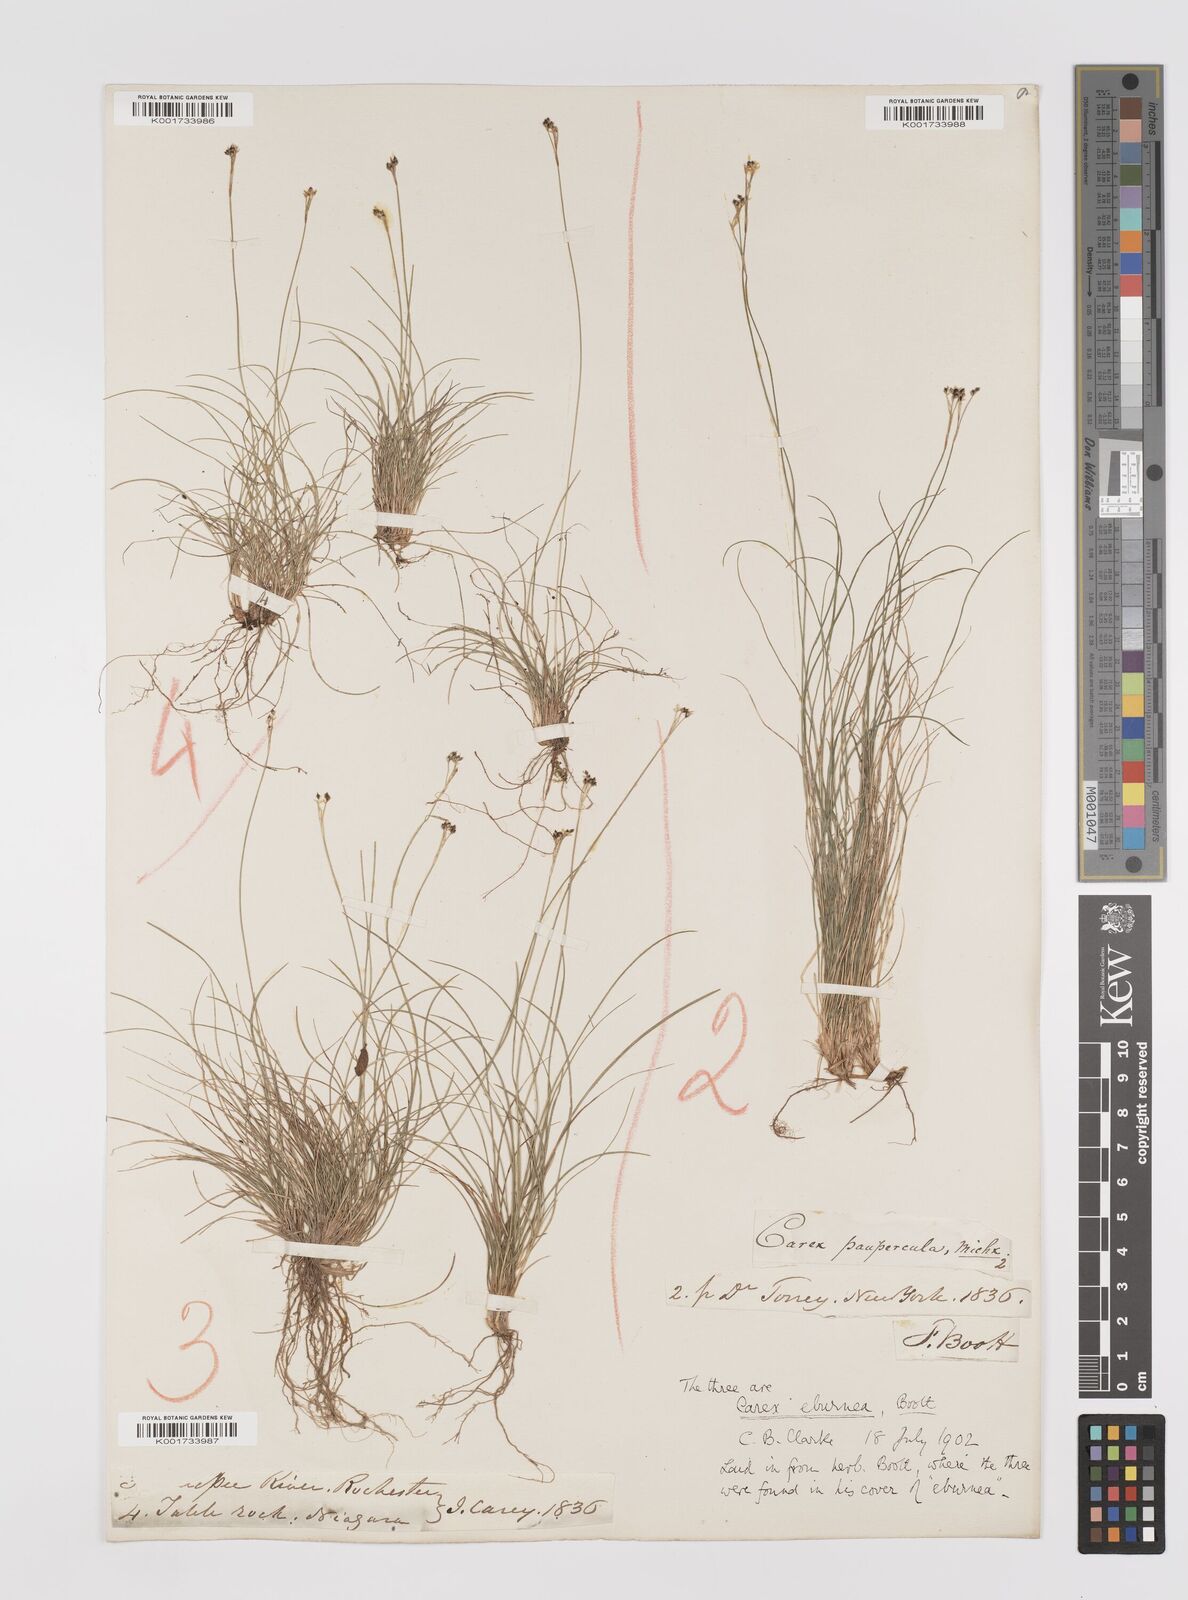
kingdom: Plantae
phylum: Tracheophyta
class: Liliopsida
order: Poales
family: Cyperaceae
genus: Carex
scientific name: Carex eburnea
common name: Bristle-leaved sedge
